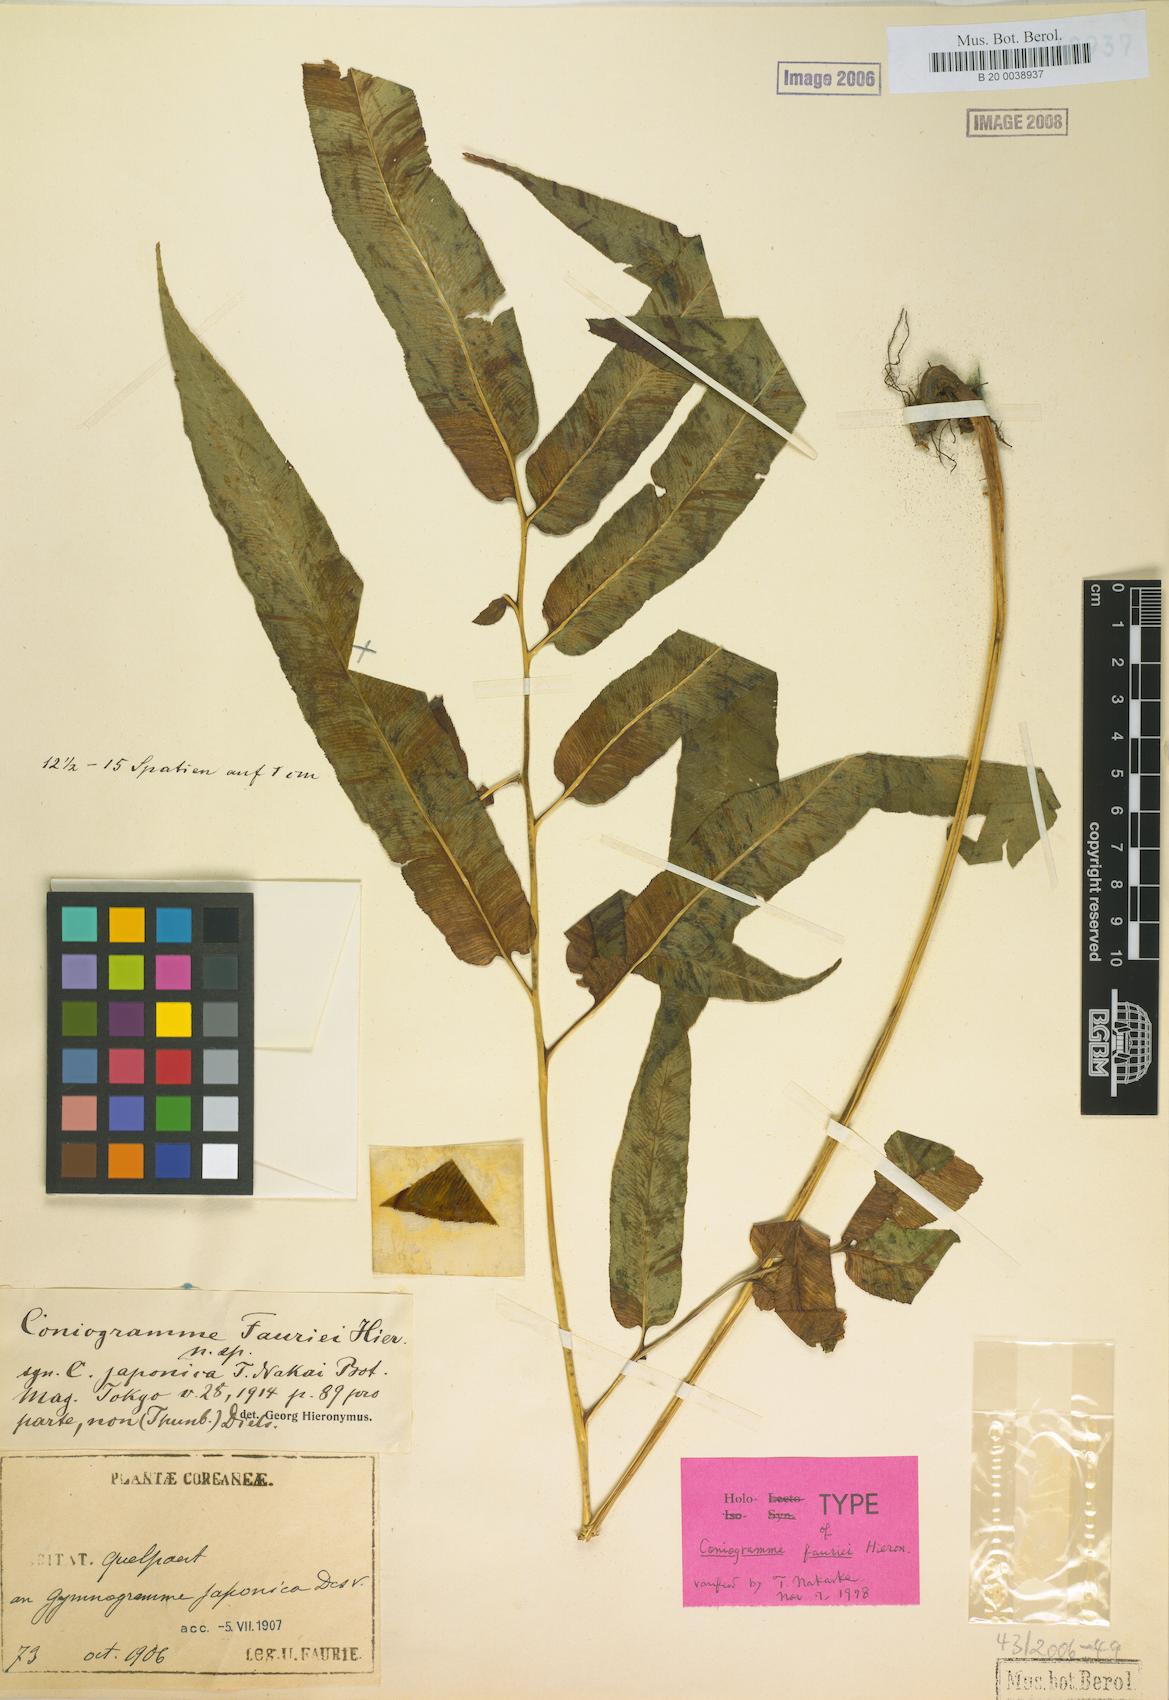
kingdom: Plantae
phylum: Tracheophyta
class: Polypodiopsida
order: Polypodiales
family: Pteridaceae
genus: Coniogramme
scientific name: Coniogramme fauriei
